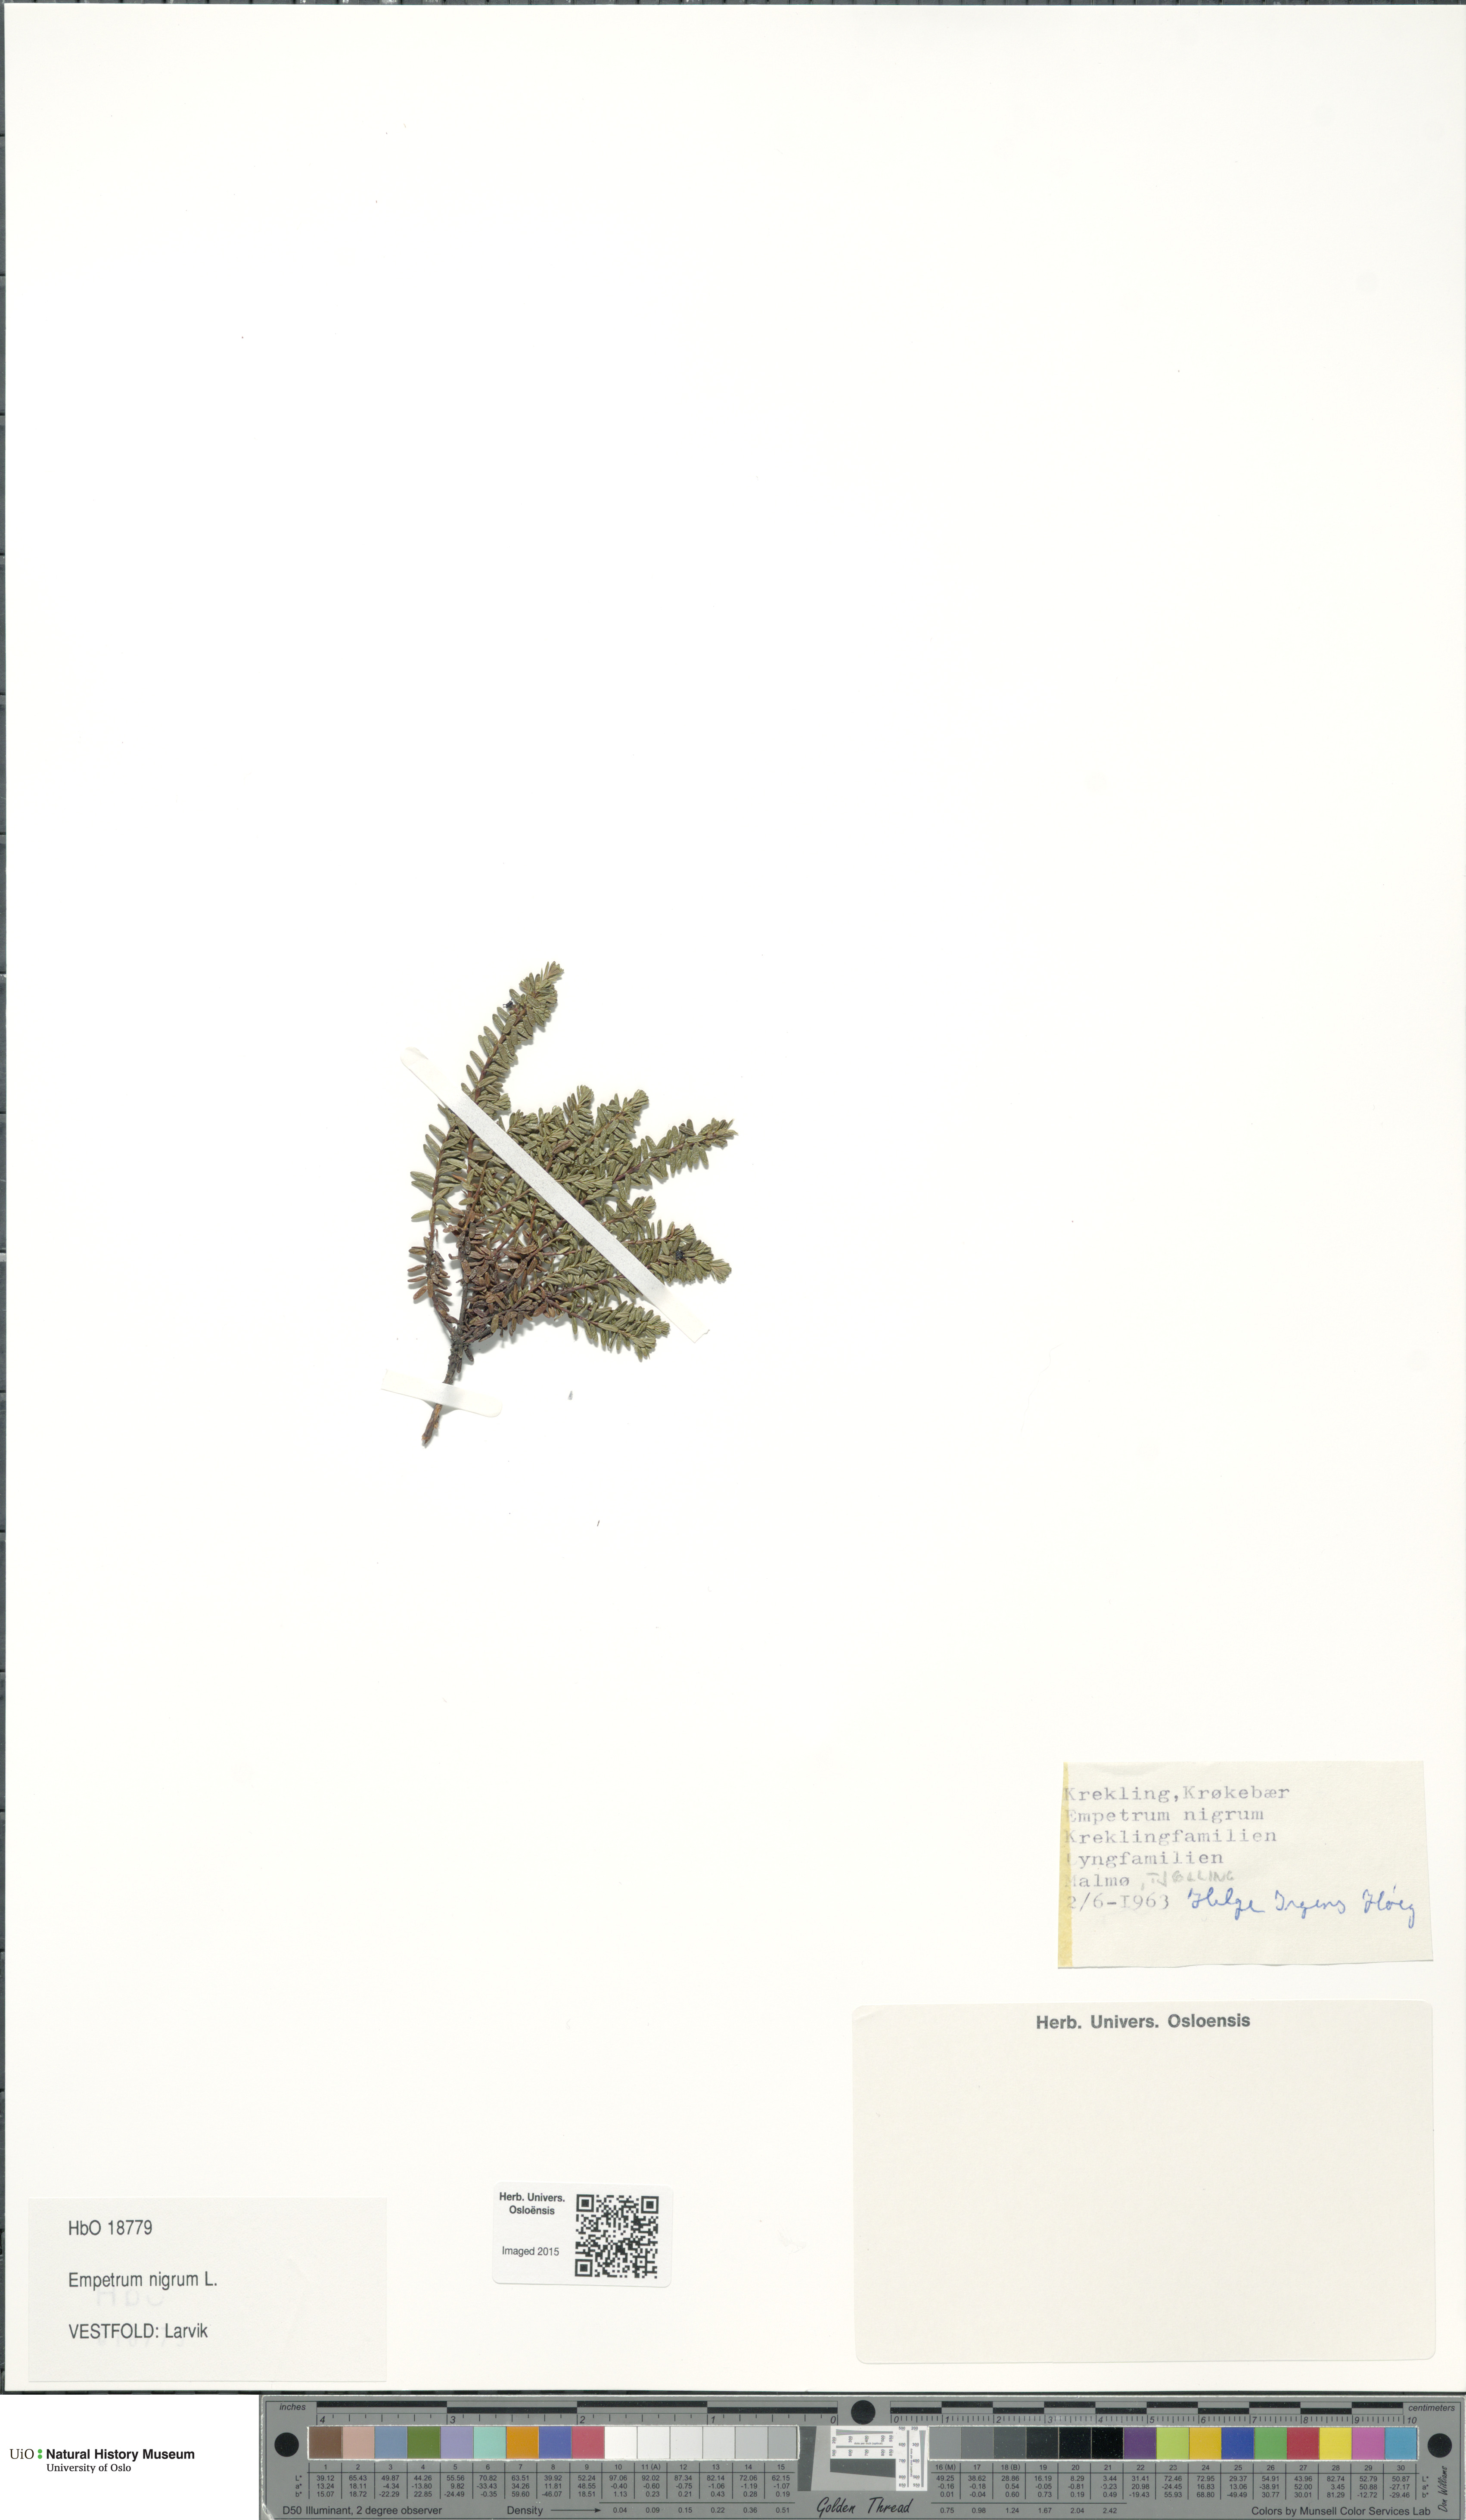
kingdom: Plantae
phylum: Tracheophyta
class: Magnoliopsida
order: Ericales
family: Ericaceae
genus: Empetrum
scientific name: Empetrum nigrum
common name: Black crowberry
